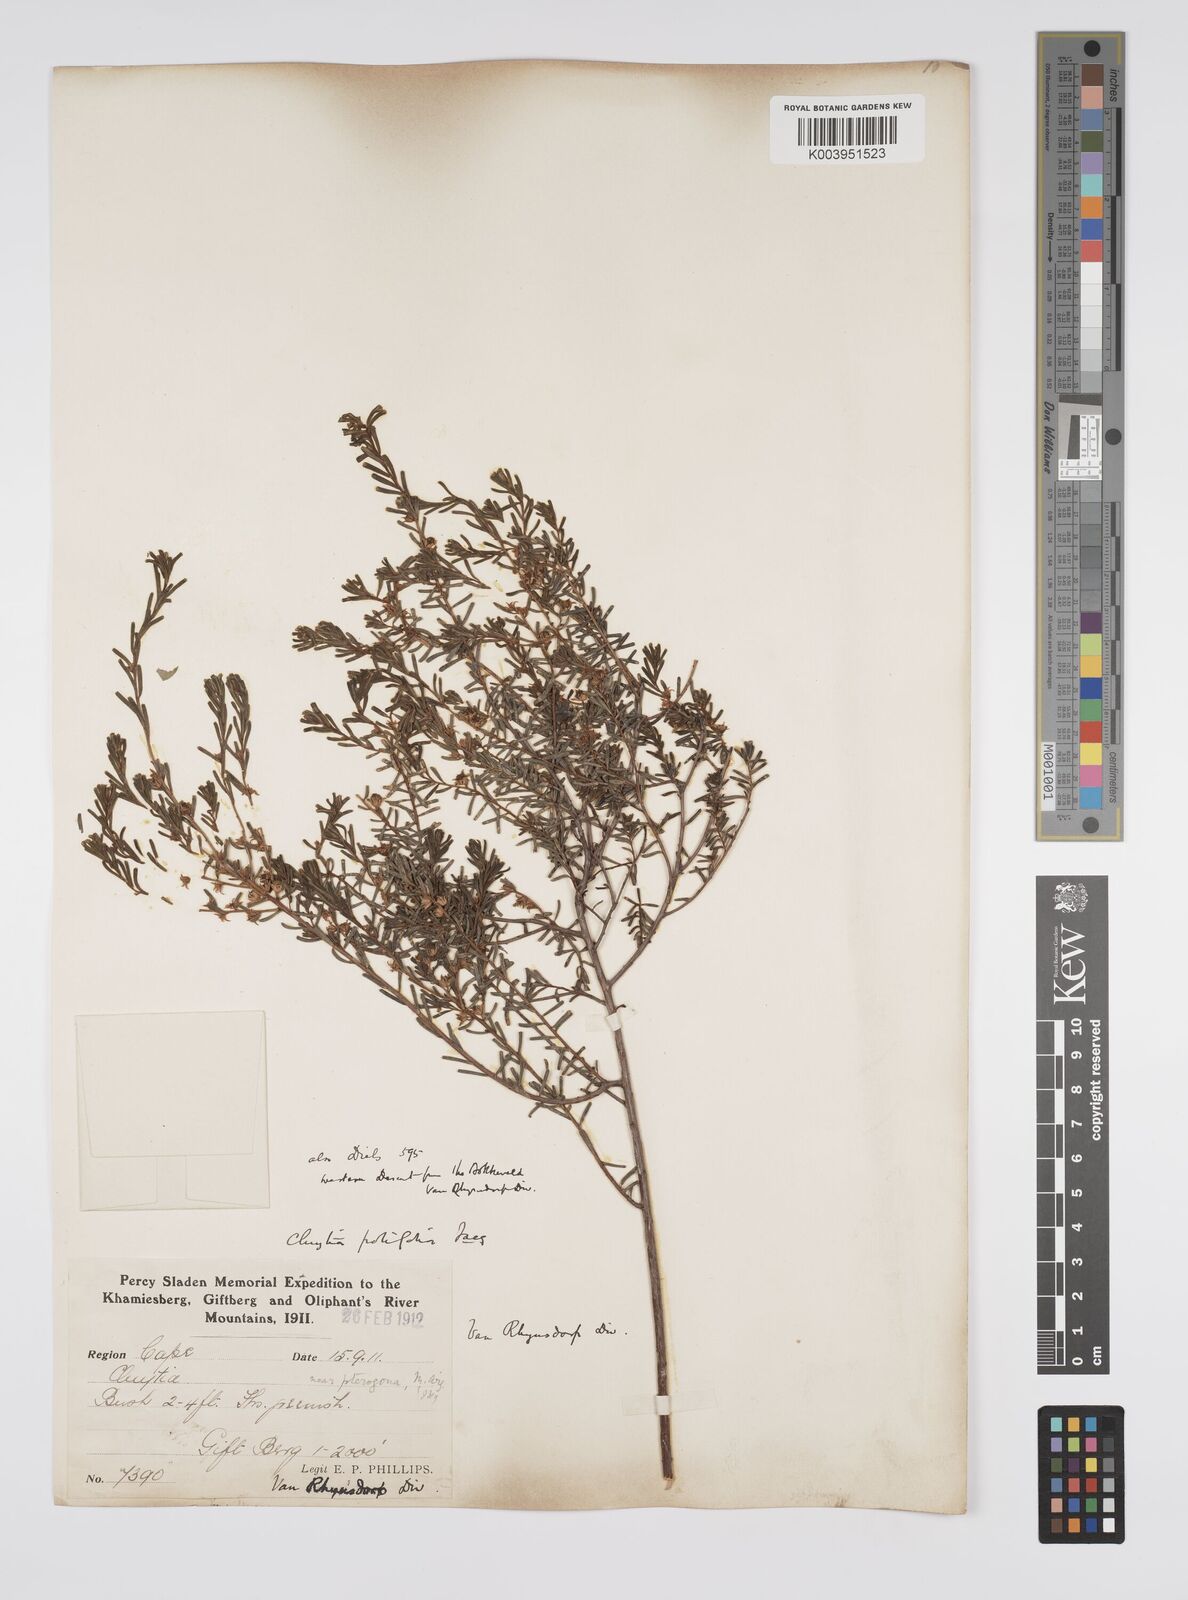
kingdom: Plantae
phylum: Tracheophyta
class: Magnoliopsida
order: Malpighiales
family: Peraceae
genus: Clutia
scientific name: Clutia
